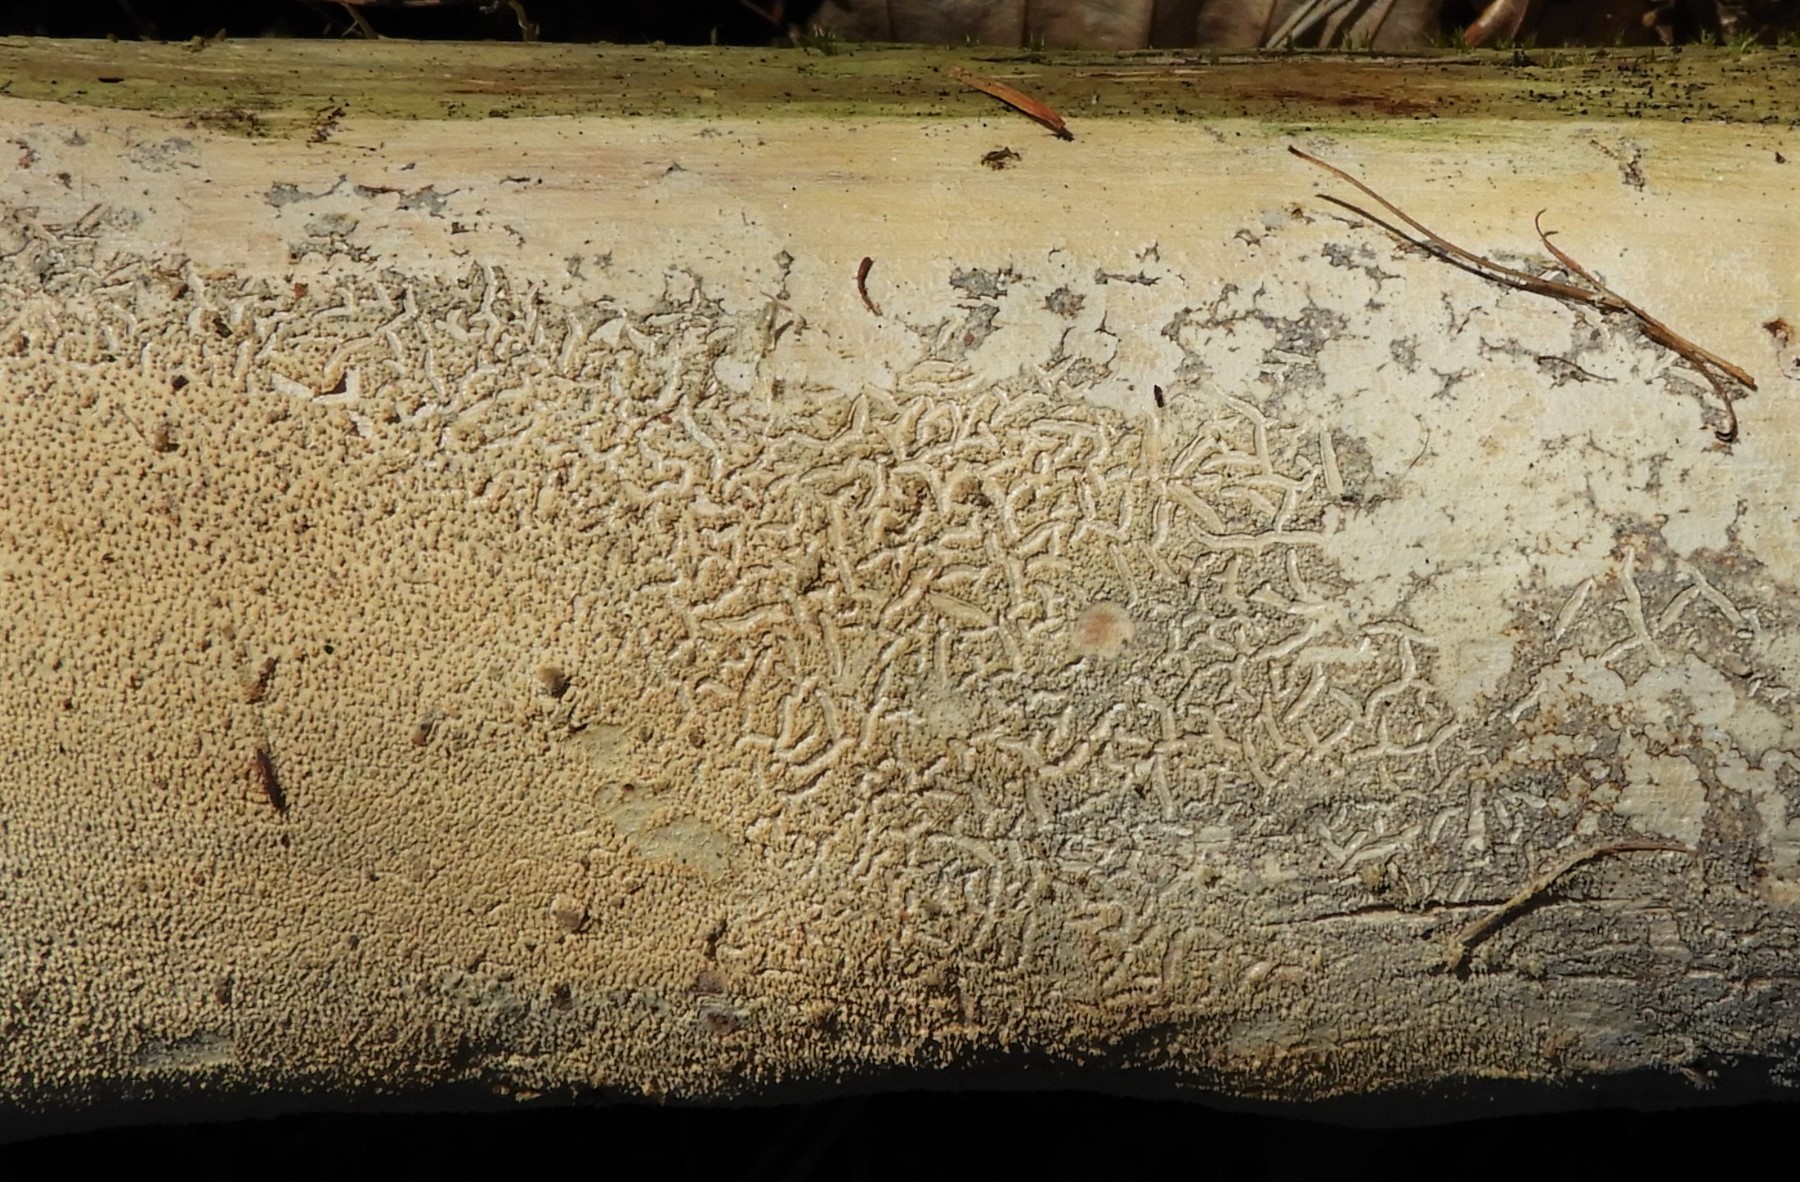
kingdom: Fungi
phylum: Basidiomycota
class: Agaricomycetes
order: Corticiales
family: Corticiaceae
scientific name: Corticiaceae
